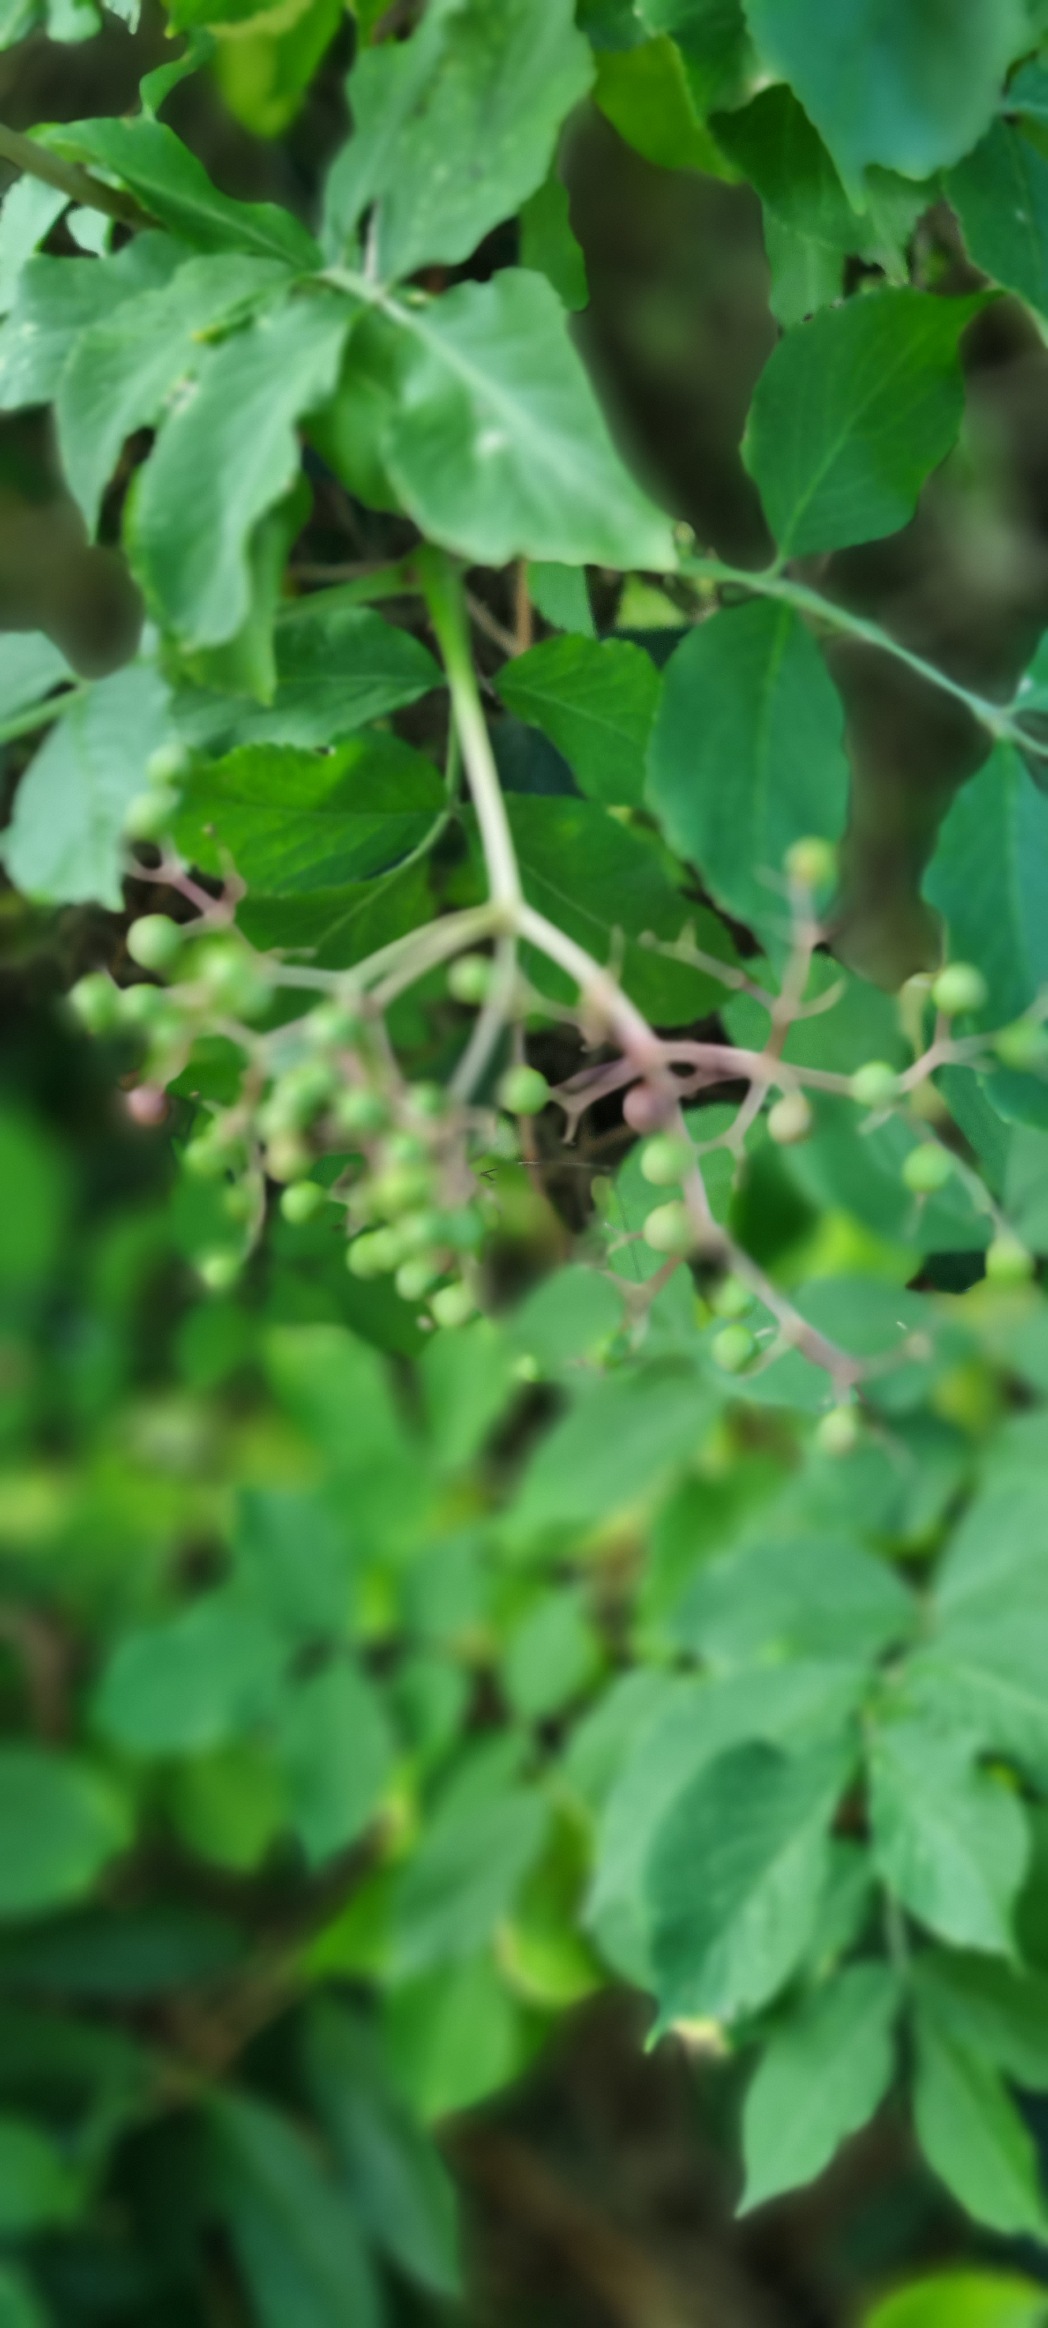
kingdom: Plantae
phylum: Tracheophyta
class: Magnoliopsida
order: Dipsacales
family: Viburnaceae
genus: Sambucus
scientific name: Sambucus nigra
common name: Almindelig hyld
